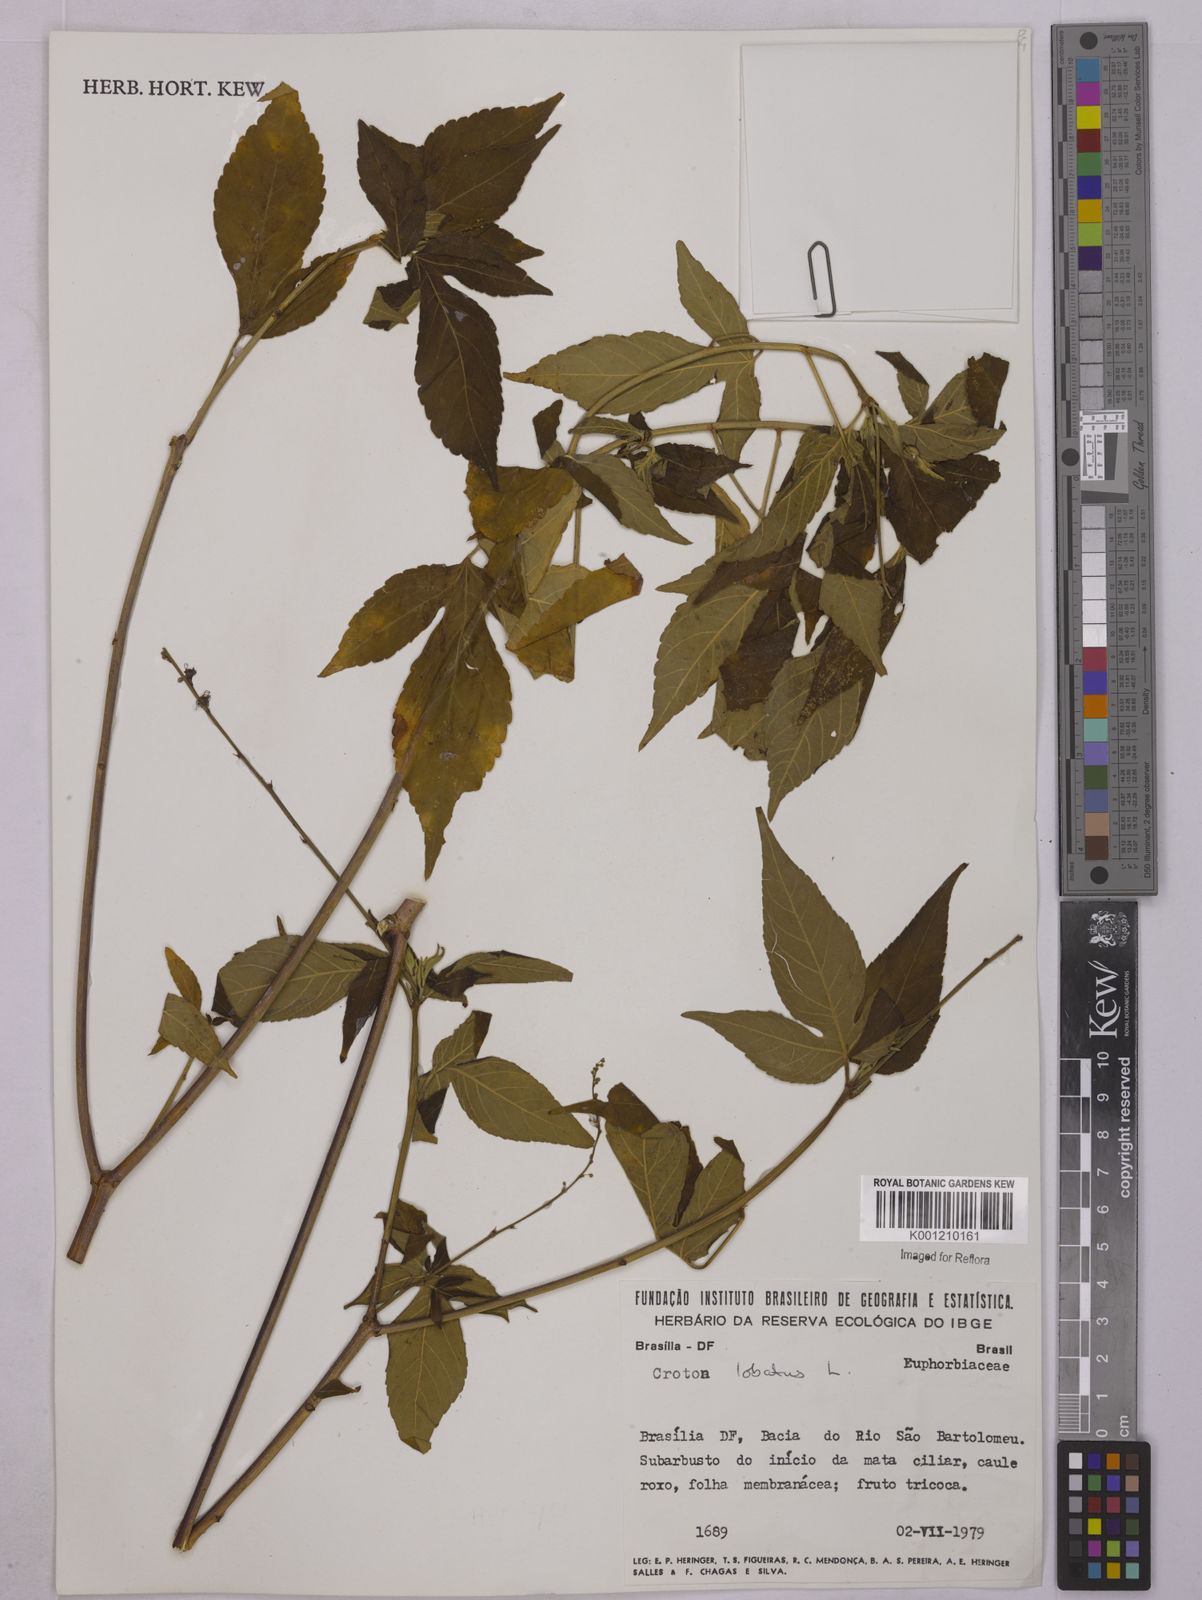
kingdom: Plantae
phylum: Tracheophyta
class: Magnoliopsida
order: Malpighiales
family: Euphorbiaceae
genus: Astraea
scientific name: Astraea lobata
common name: Lobed croton
